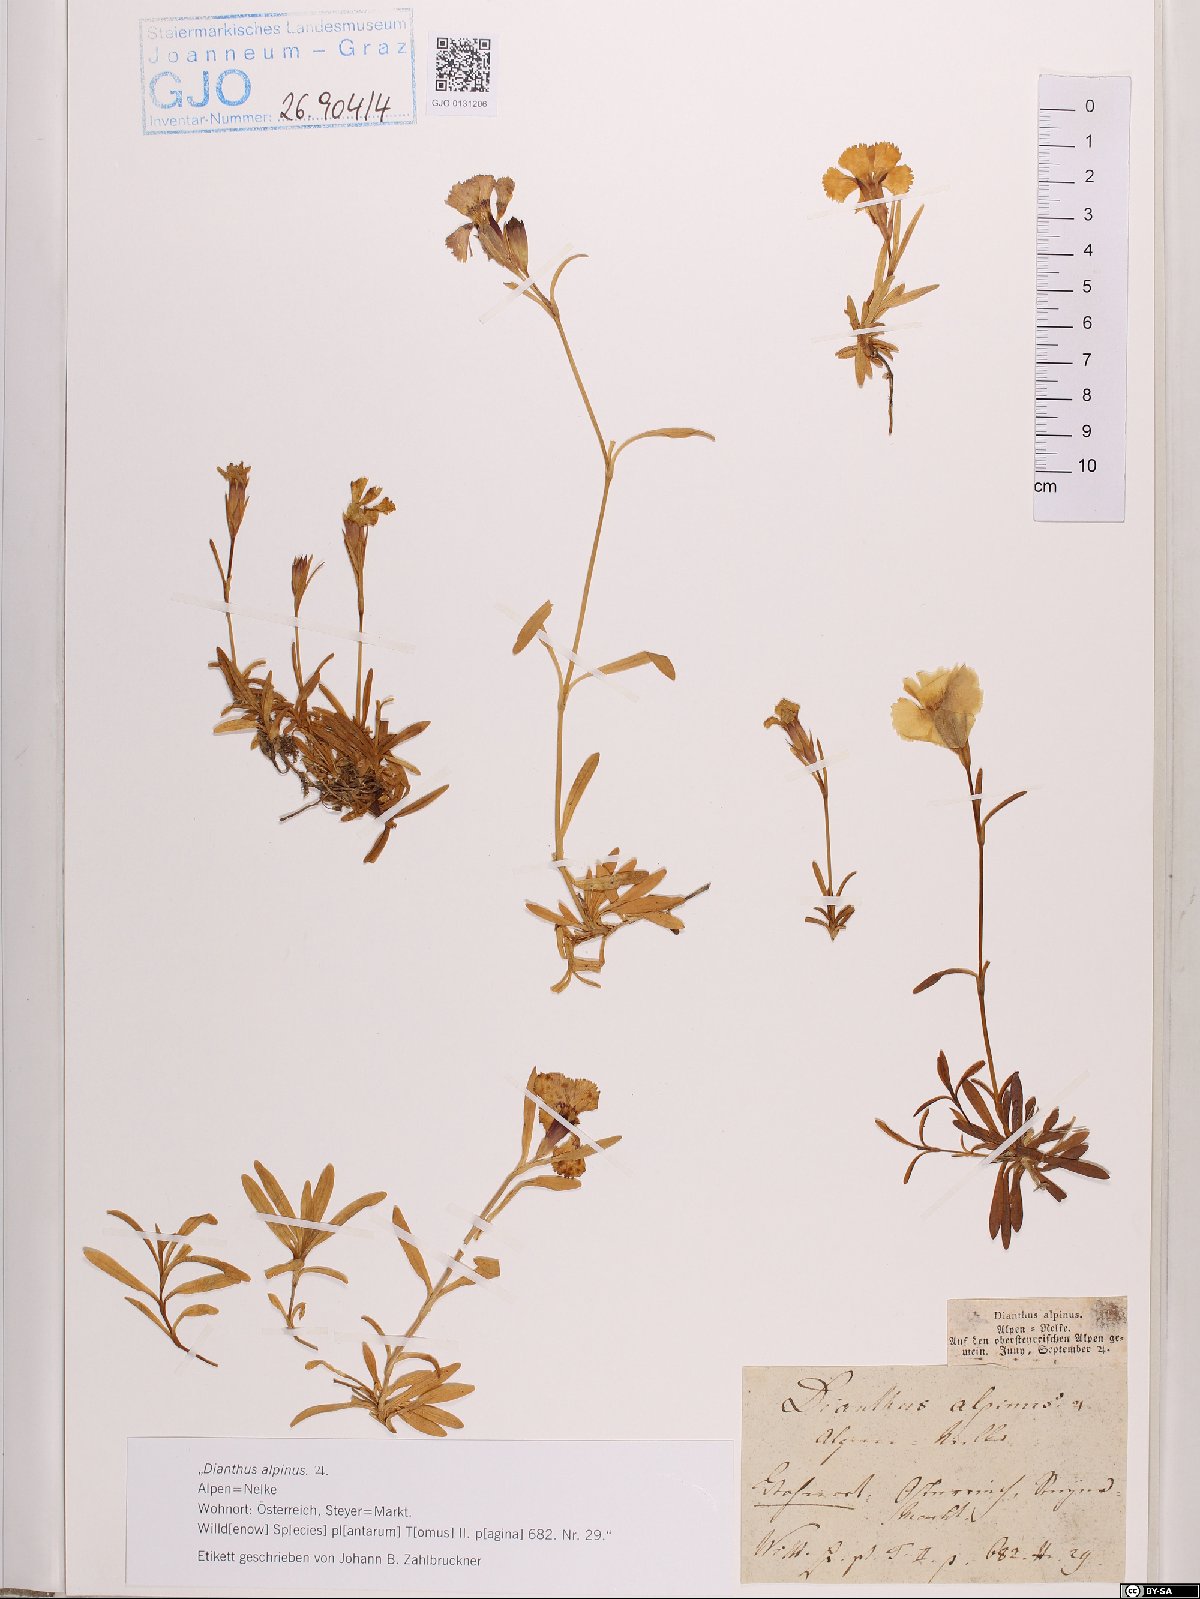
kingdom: Plantae
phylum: Tracheophyta
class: Magnoliopsida
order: Caryophyllales
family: Caryophyllaceae
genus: Dianthus
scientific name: Dianthus alpinus
